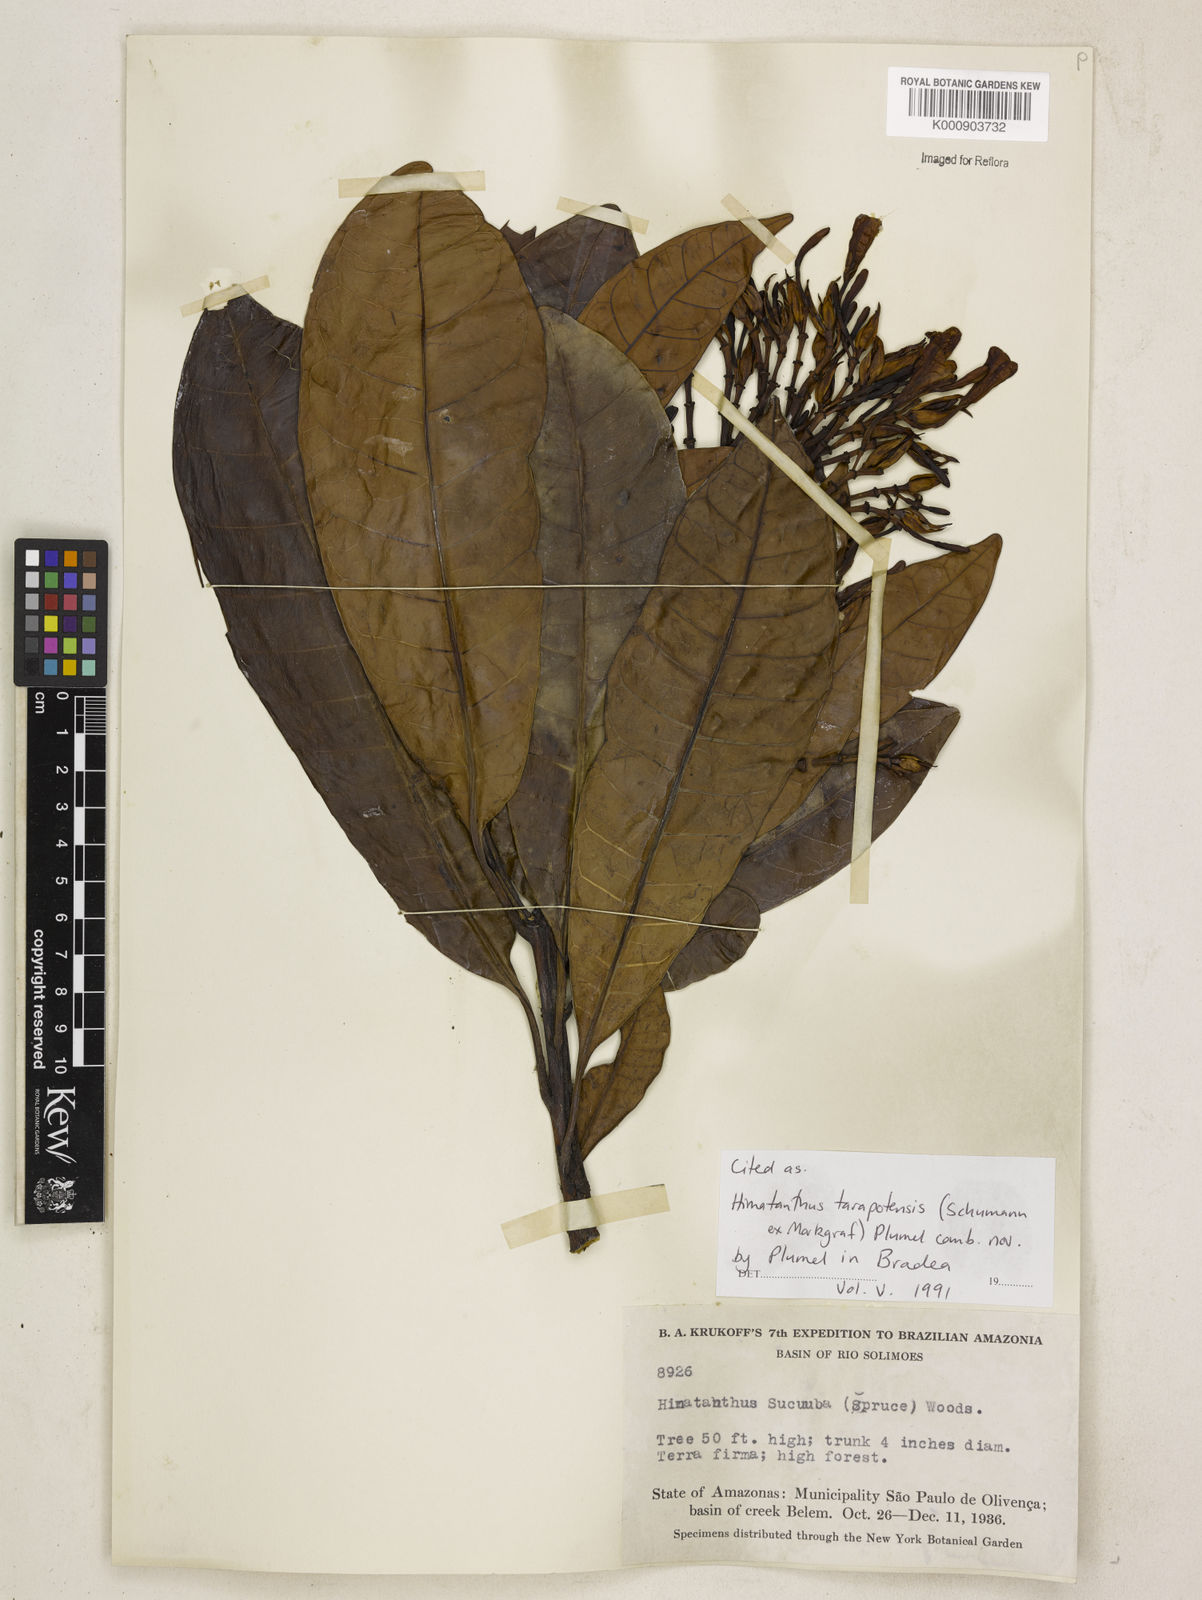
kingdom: Plantae
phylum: Tracheophyta
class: Magnoliopsida
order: Gentianales
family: Apocynaceae
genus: Himatanthus
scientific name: Himatanthus tarapotensis
